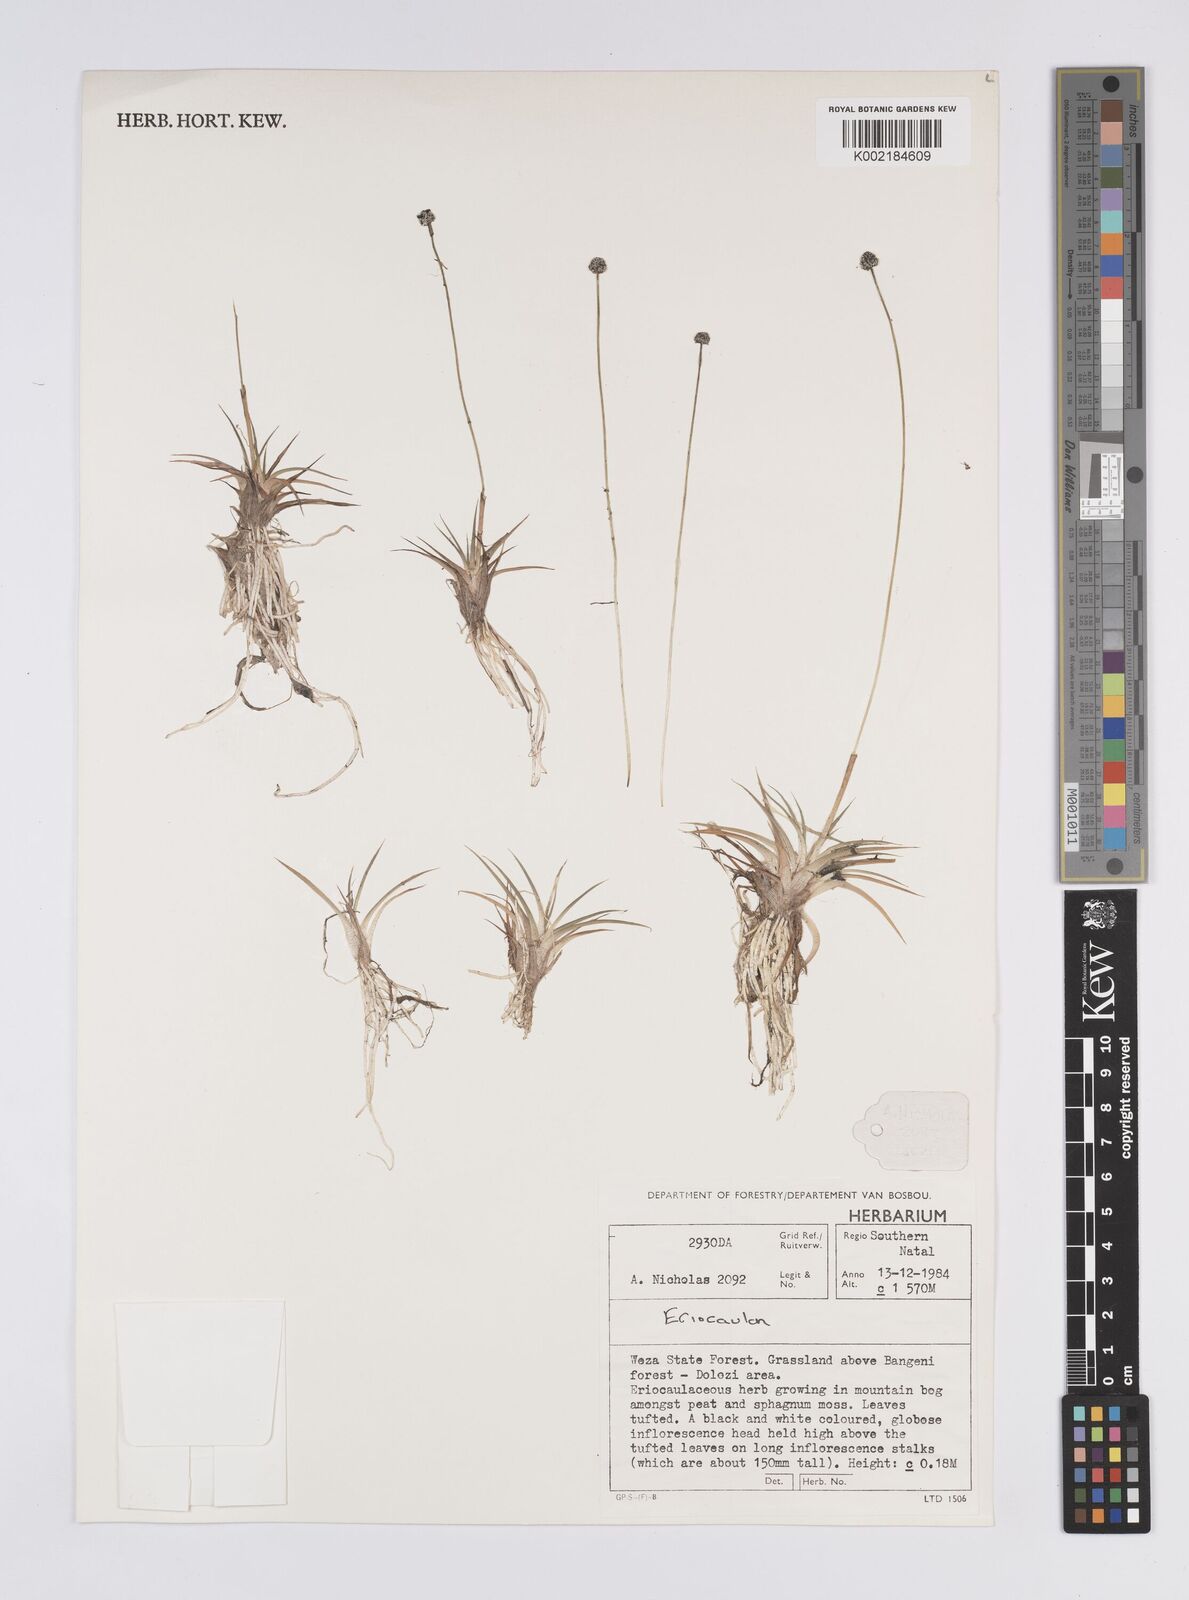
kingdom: Plantae
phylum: Tracheophyta
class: Liliopsida
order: Poales
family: Eriocaulaceae
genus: Eriocaulon
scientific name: Eriocaulon
